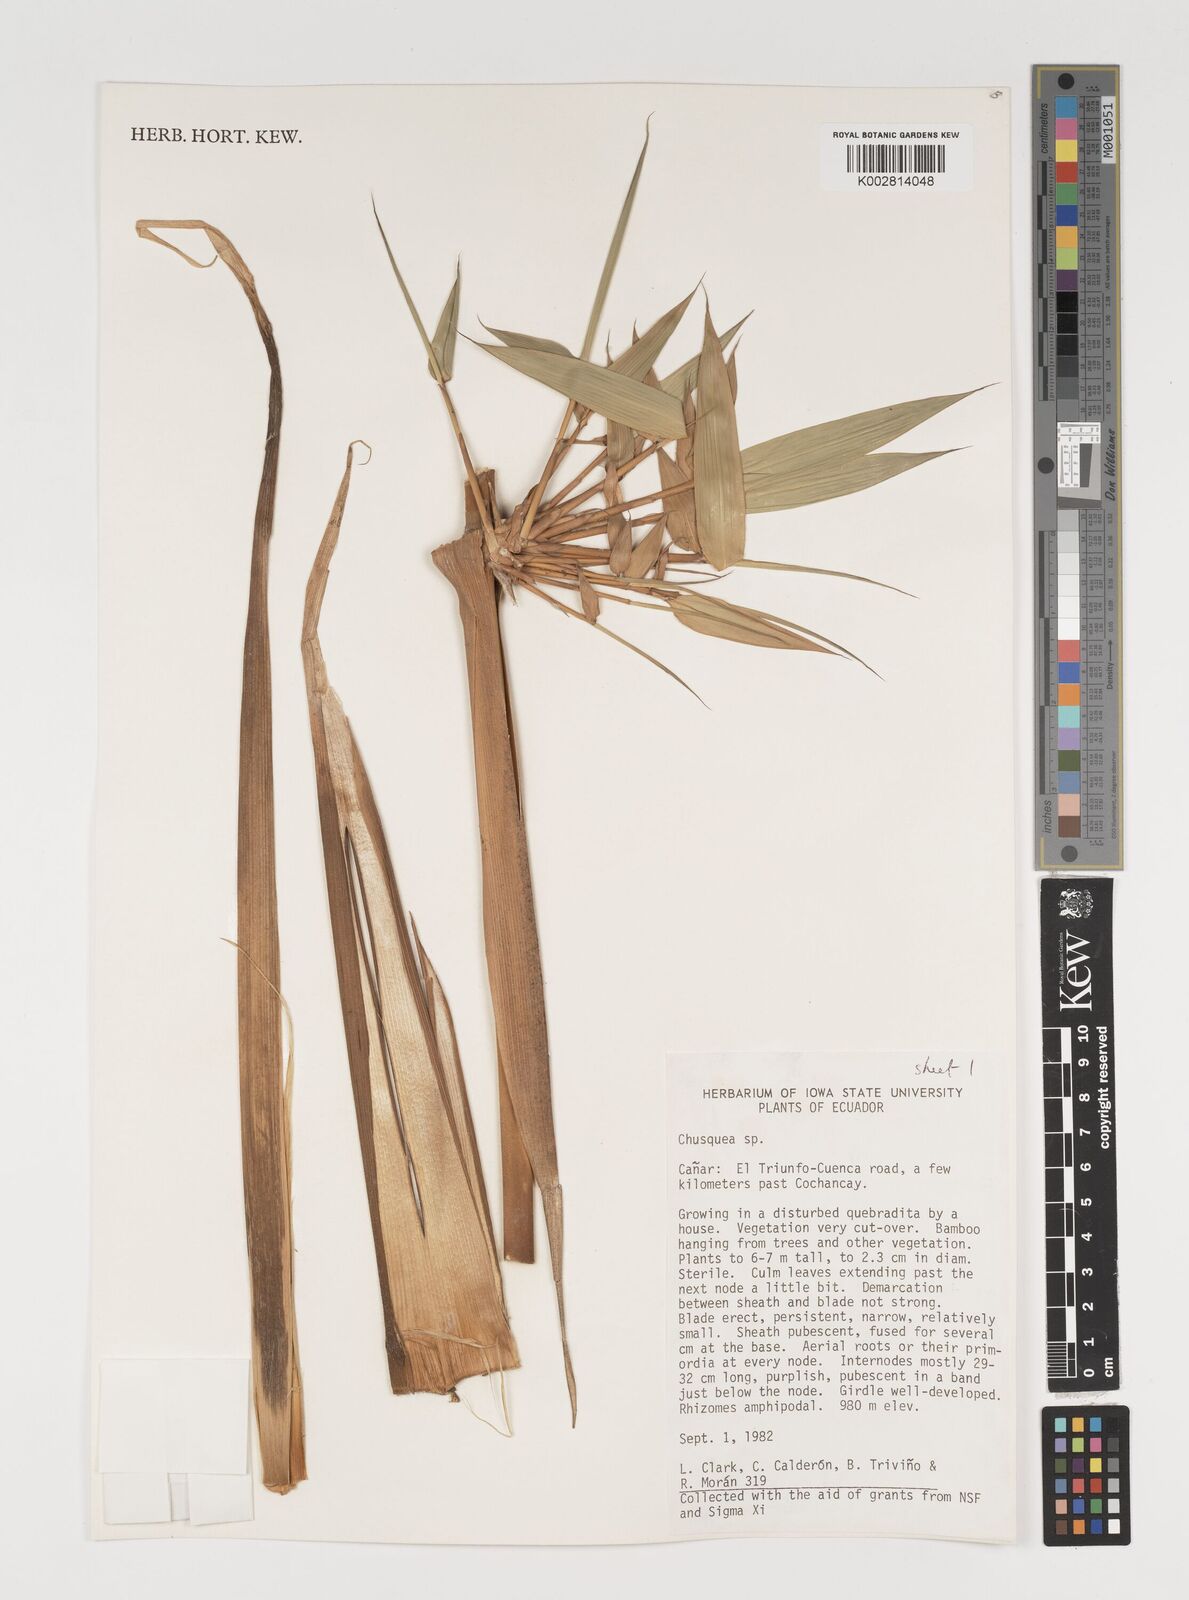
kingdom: Plantae
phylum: Tracheophyta
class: Liliopsida
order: Poales
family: Poaceae
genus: Chusquea
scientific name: Chusquea
